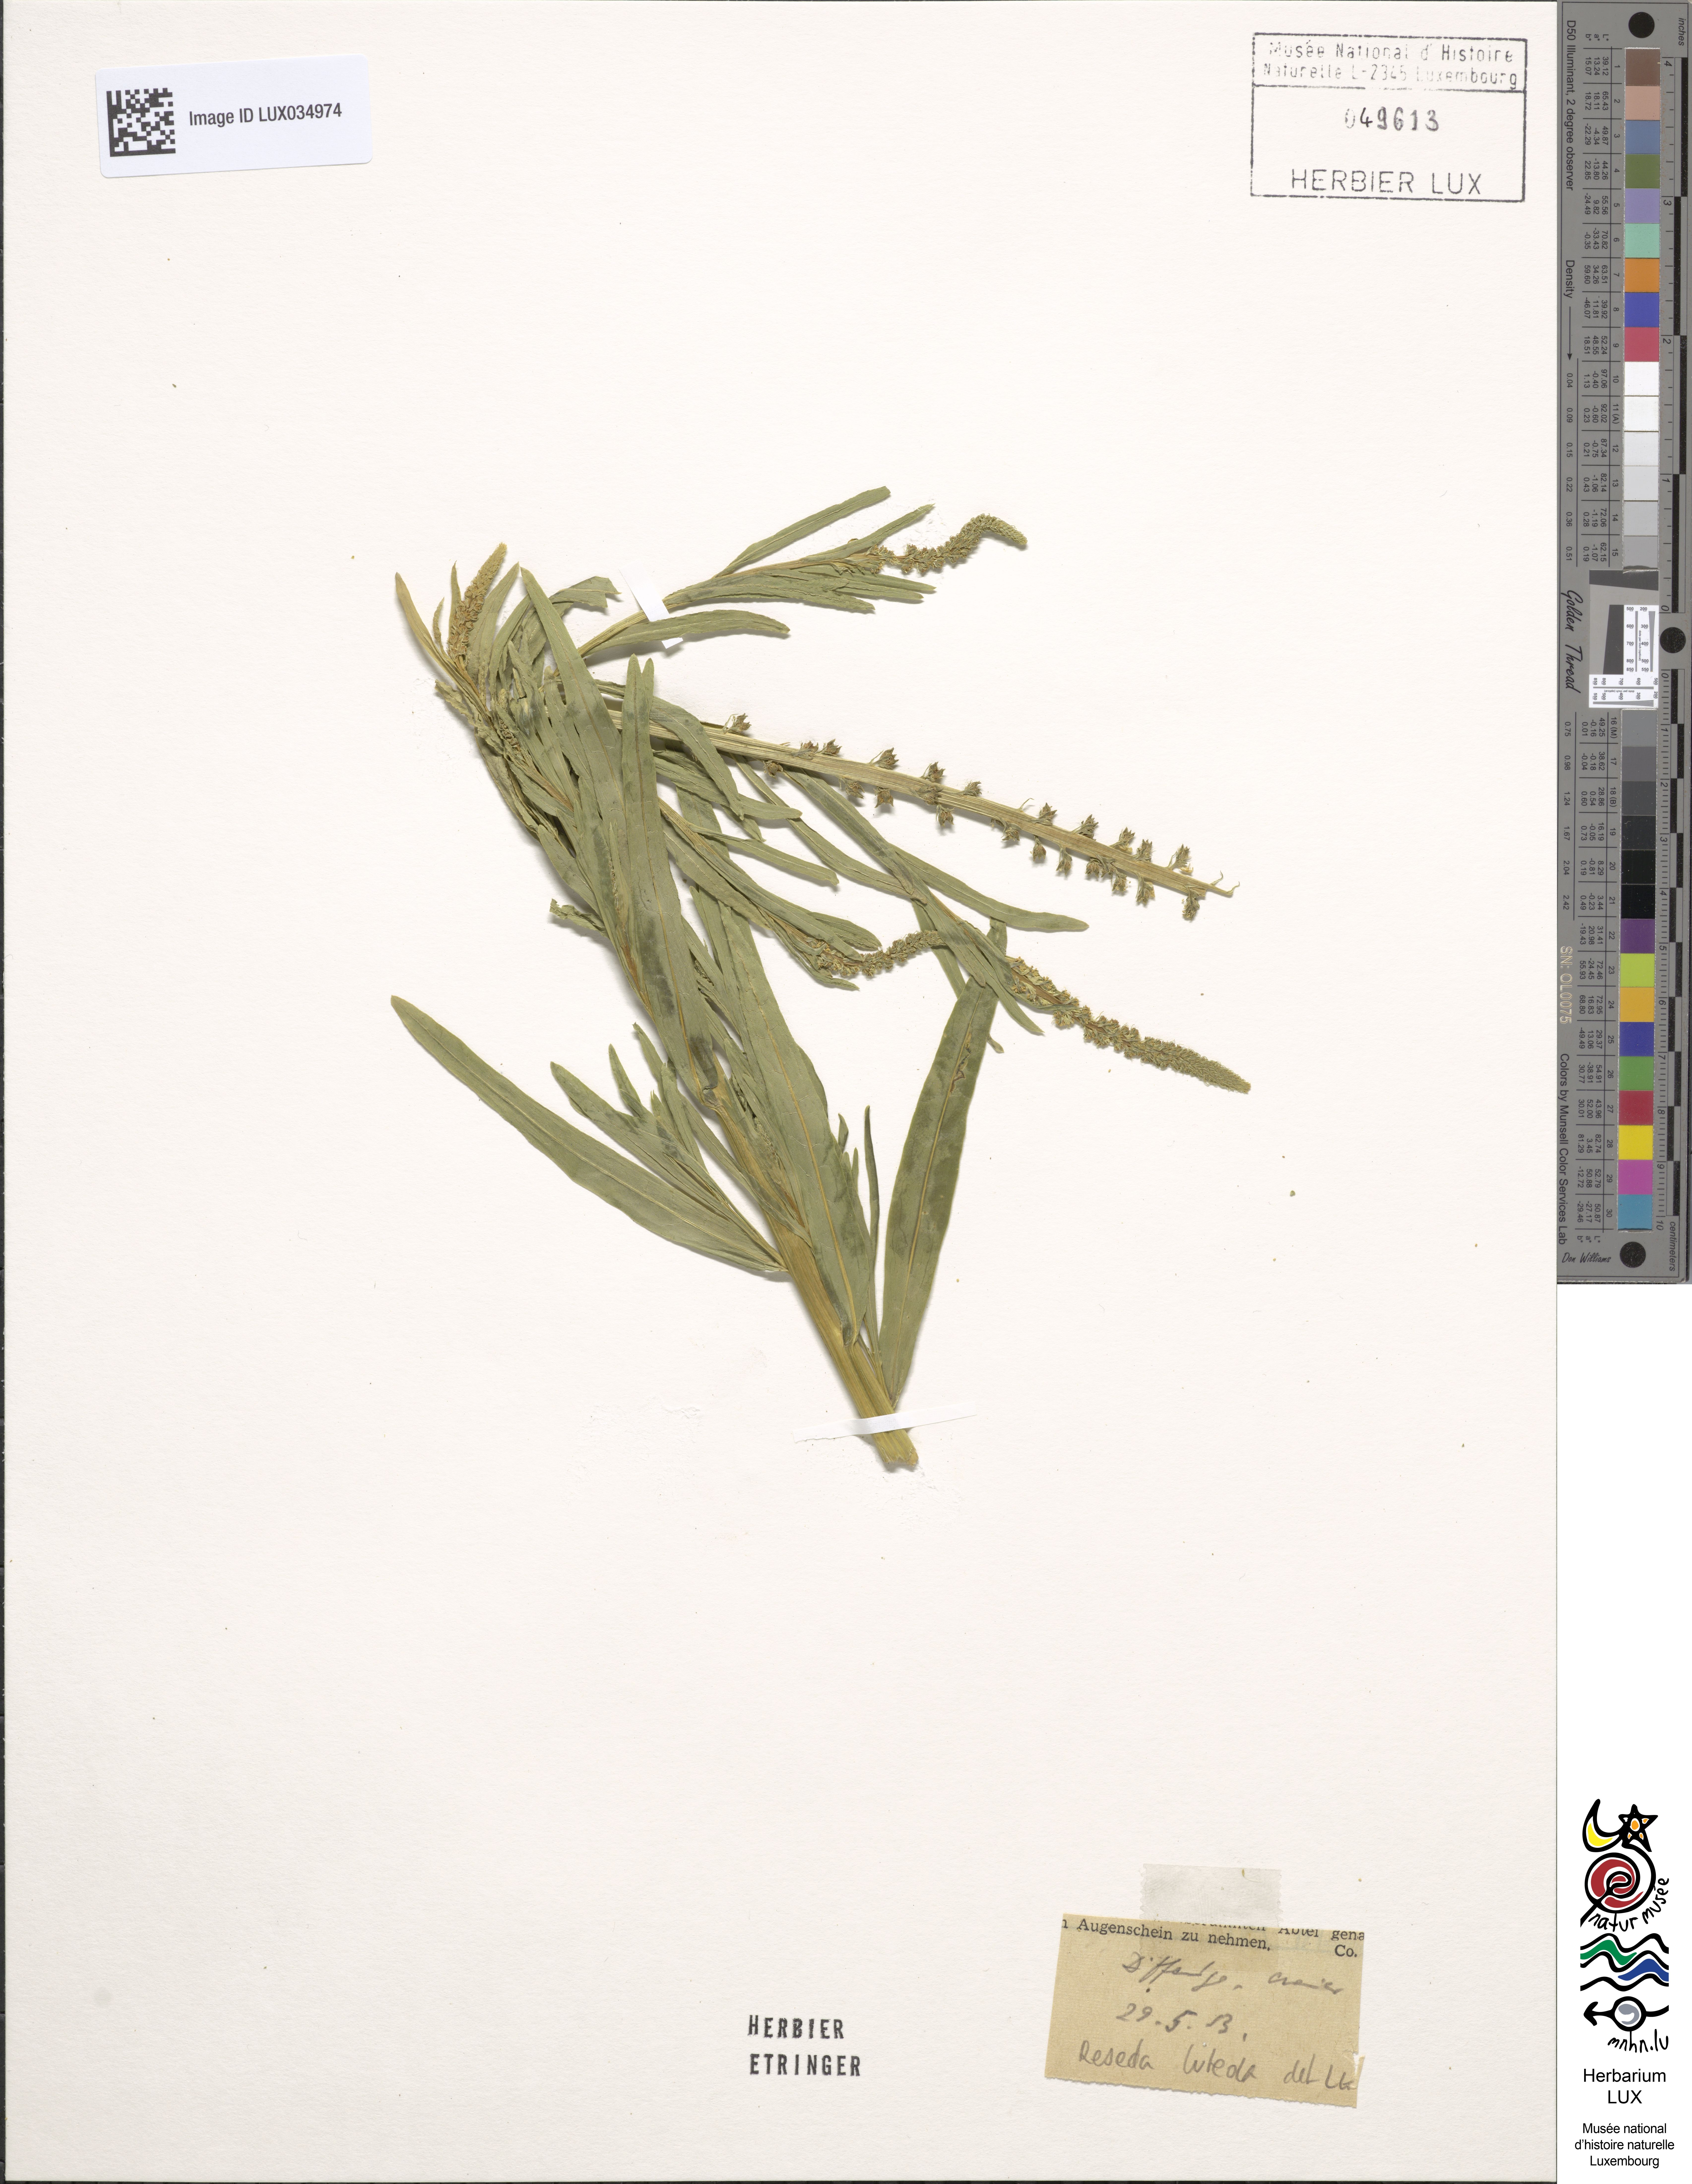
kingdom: Plantae
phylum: Tracheophyta
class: Magnoliopsida
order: Brassicales
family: Resedaceae
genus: Reseda
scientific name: Reseda lutea
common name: Wild mignonette
